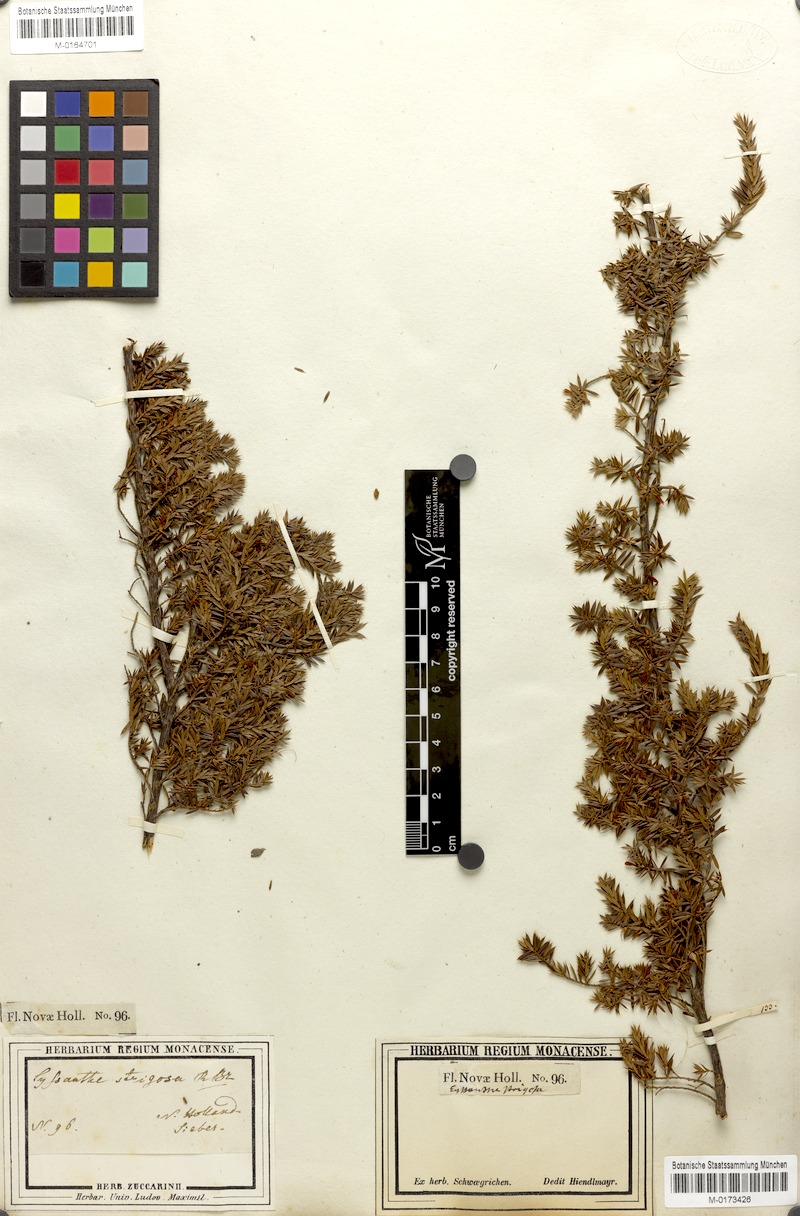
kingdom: Plantae
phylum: Tracheophyta
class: Magnoliopsida
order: Ericales
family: Ericaceae
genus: Styphelia
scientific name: Styphelia sieberi
